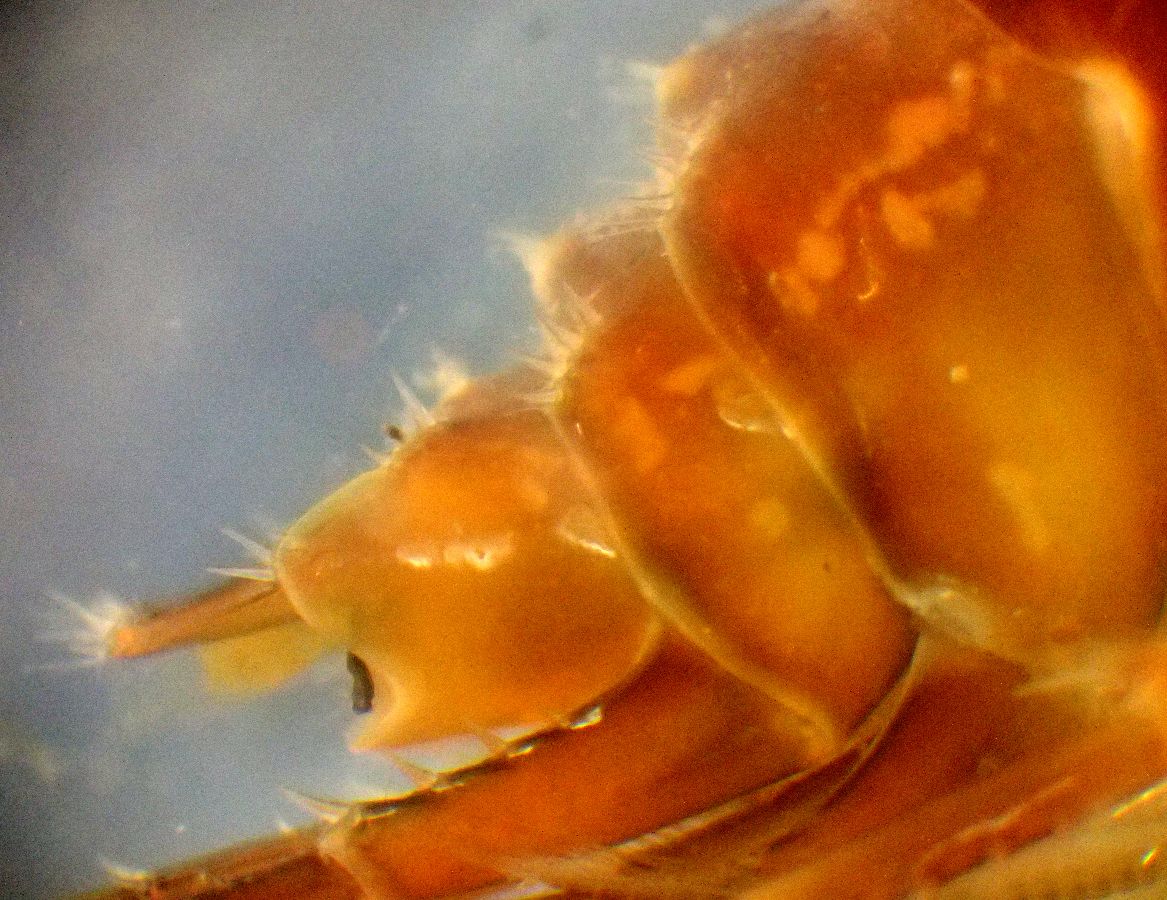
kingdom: Animalia
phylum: Arthropoda
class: Malacostraca
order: Amphipoda
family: Gammaridae
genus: Gammarus
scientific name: Gammarus oceanicus
